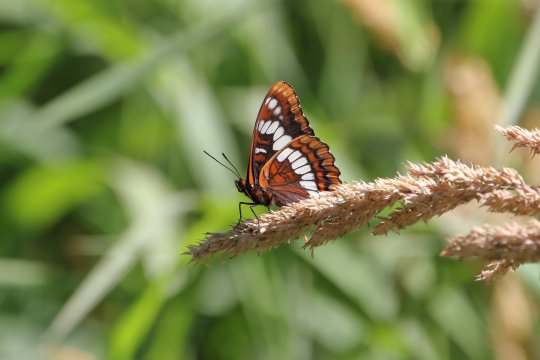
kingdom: Animalia
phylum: Arthropoda
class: Insecta
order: Lepidoptera
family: Nymphalidae
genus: Limenitis
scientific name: Limenitis lorquini
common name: Lorquin's Admiral
